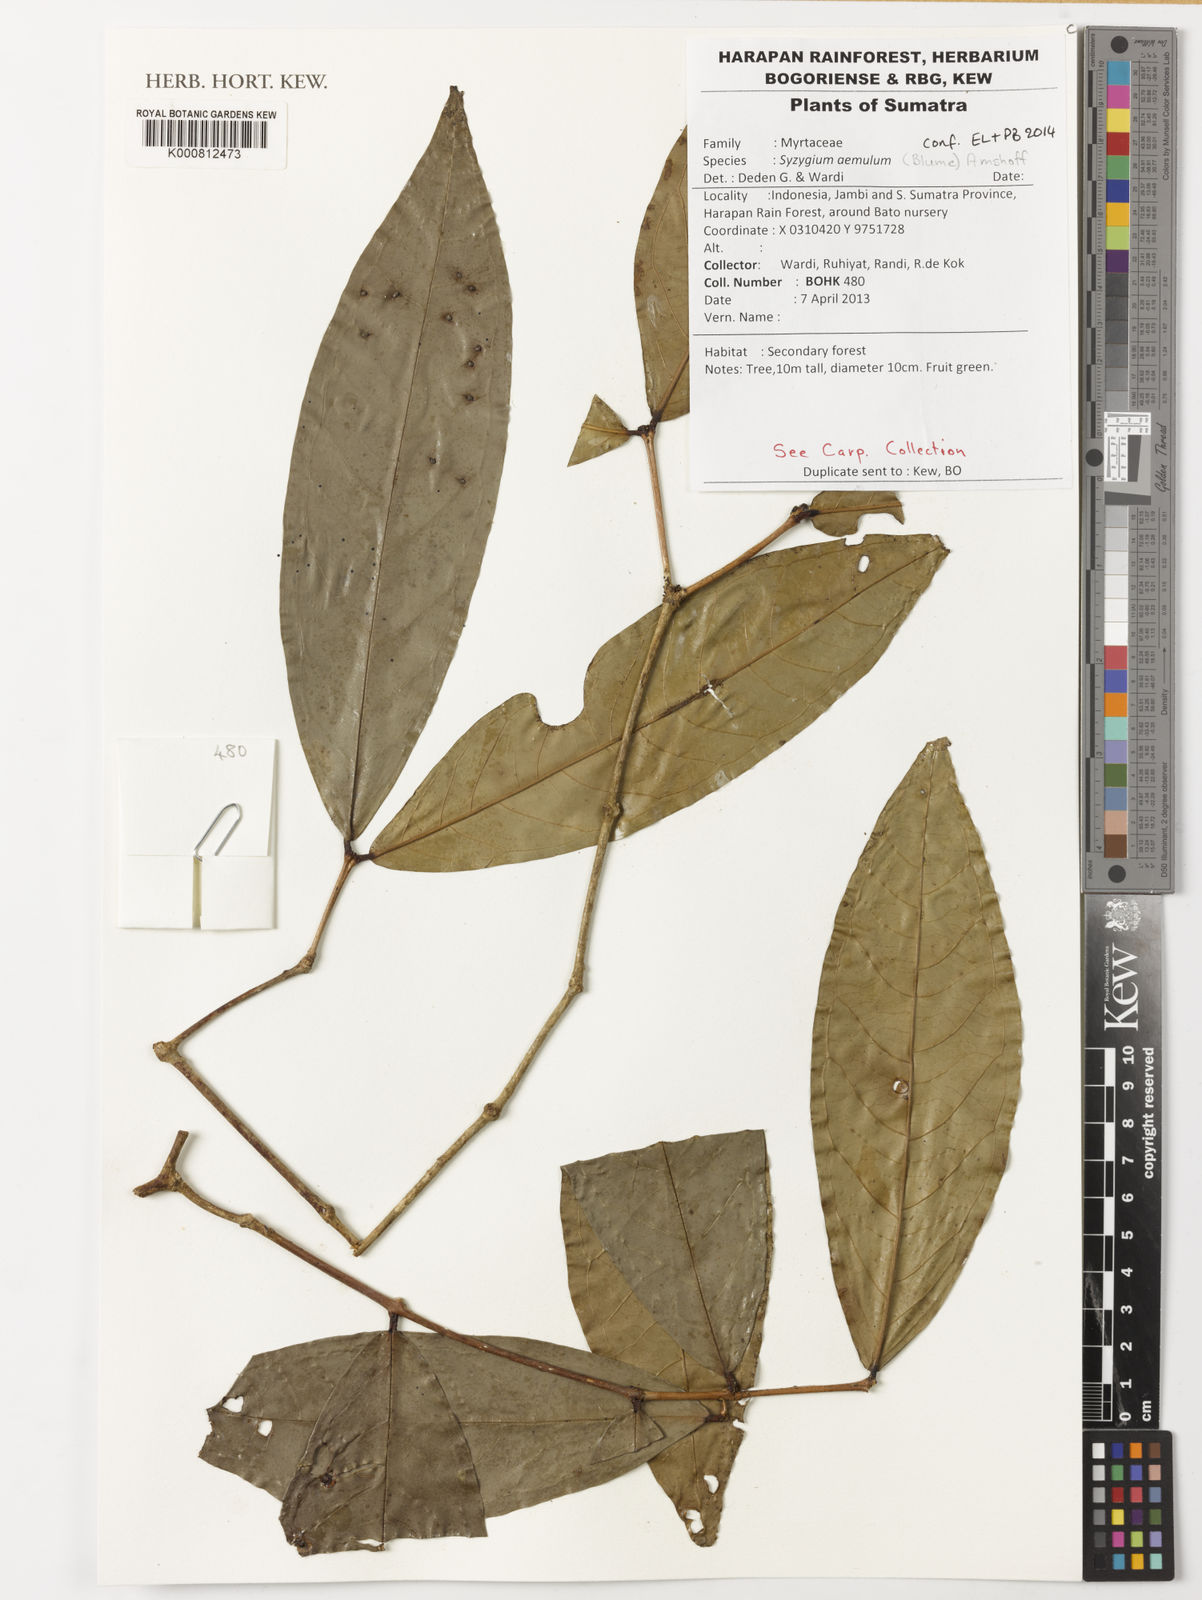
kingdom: Plantae
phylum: Tracheophyta
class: Magnoliopsida
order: Myrtales
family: Myrtaceae
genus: Syzygium
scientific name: Syzygium aemulum
